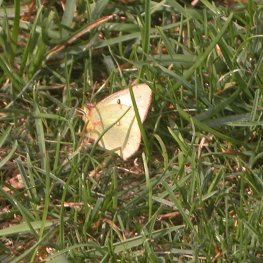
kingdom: Animalia
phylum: Arthropoda
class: Insecta
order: Lepidoptera
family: Pieridae
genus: Colias
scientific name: Colias philodice
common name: Clouded Sulphur
